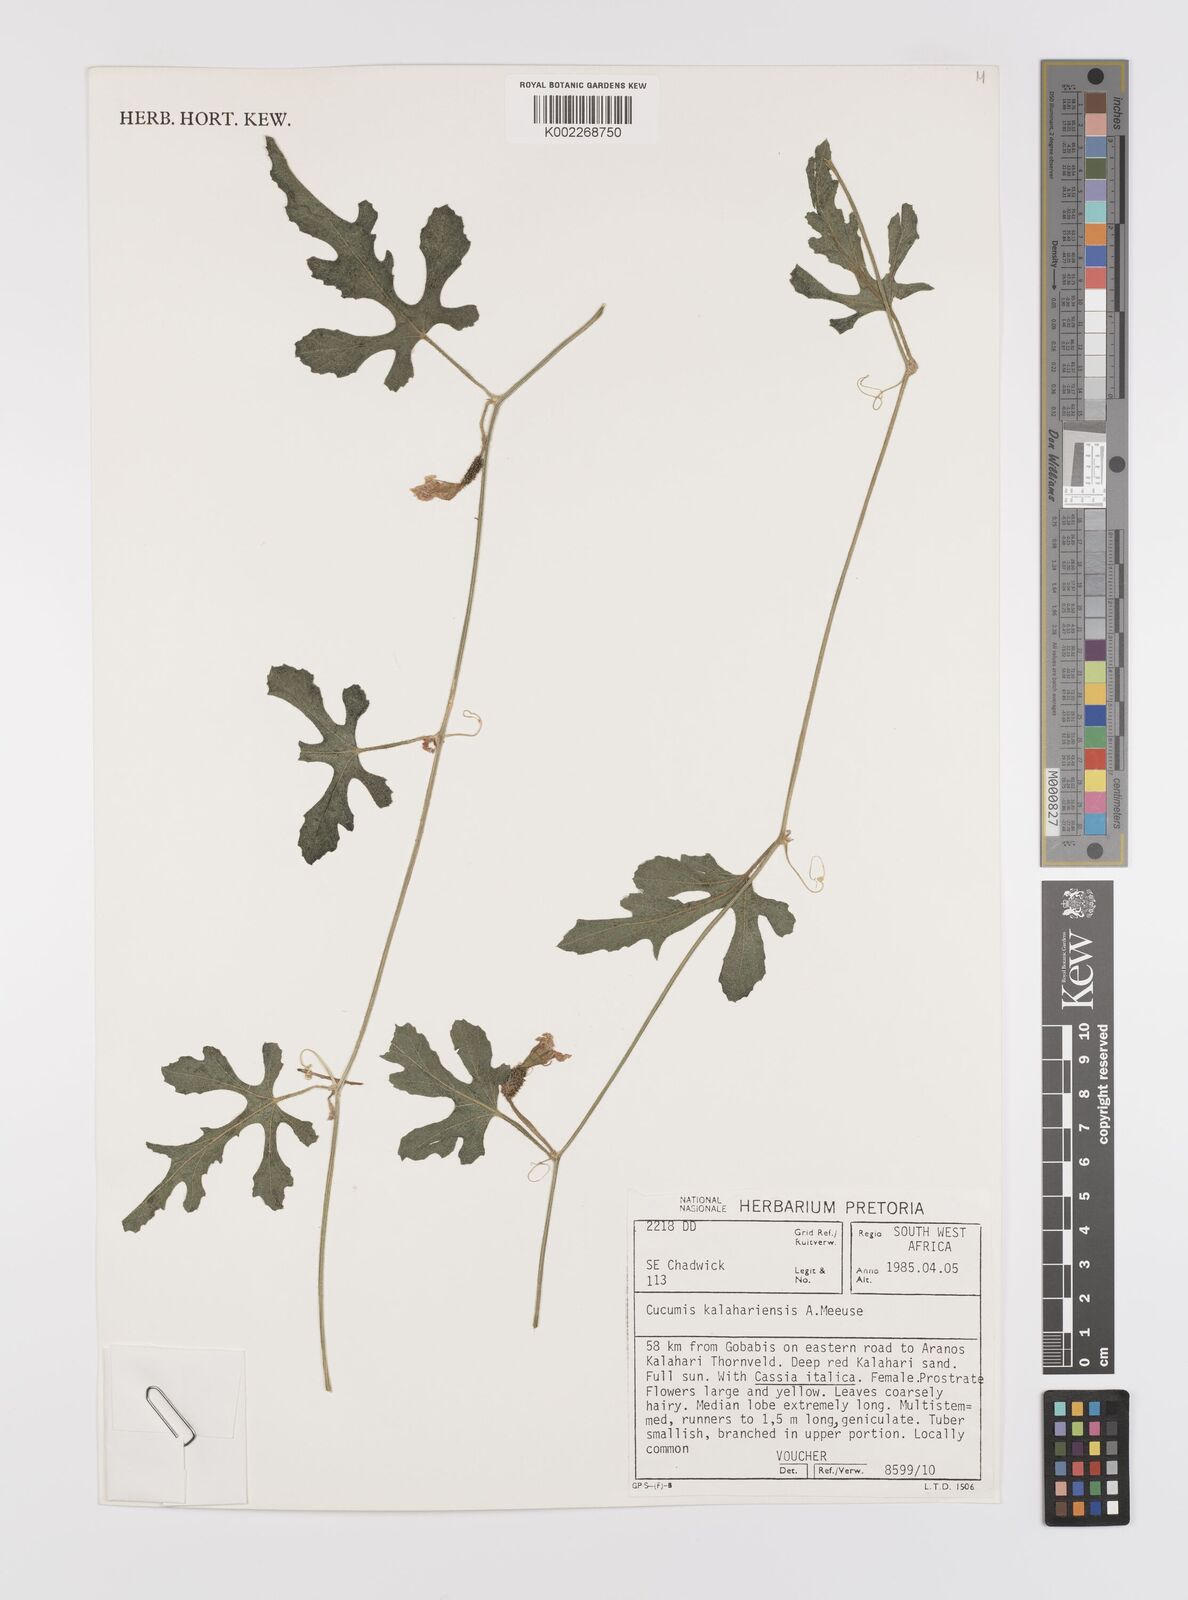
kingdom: Plantae
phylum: Tracheophyta
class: Magnoliopsida
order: Cucurbitales
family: Cucurbitaceae
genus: Cucumis
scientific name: Cucumis kalahariensis
